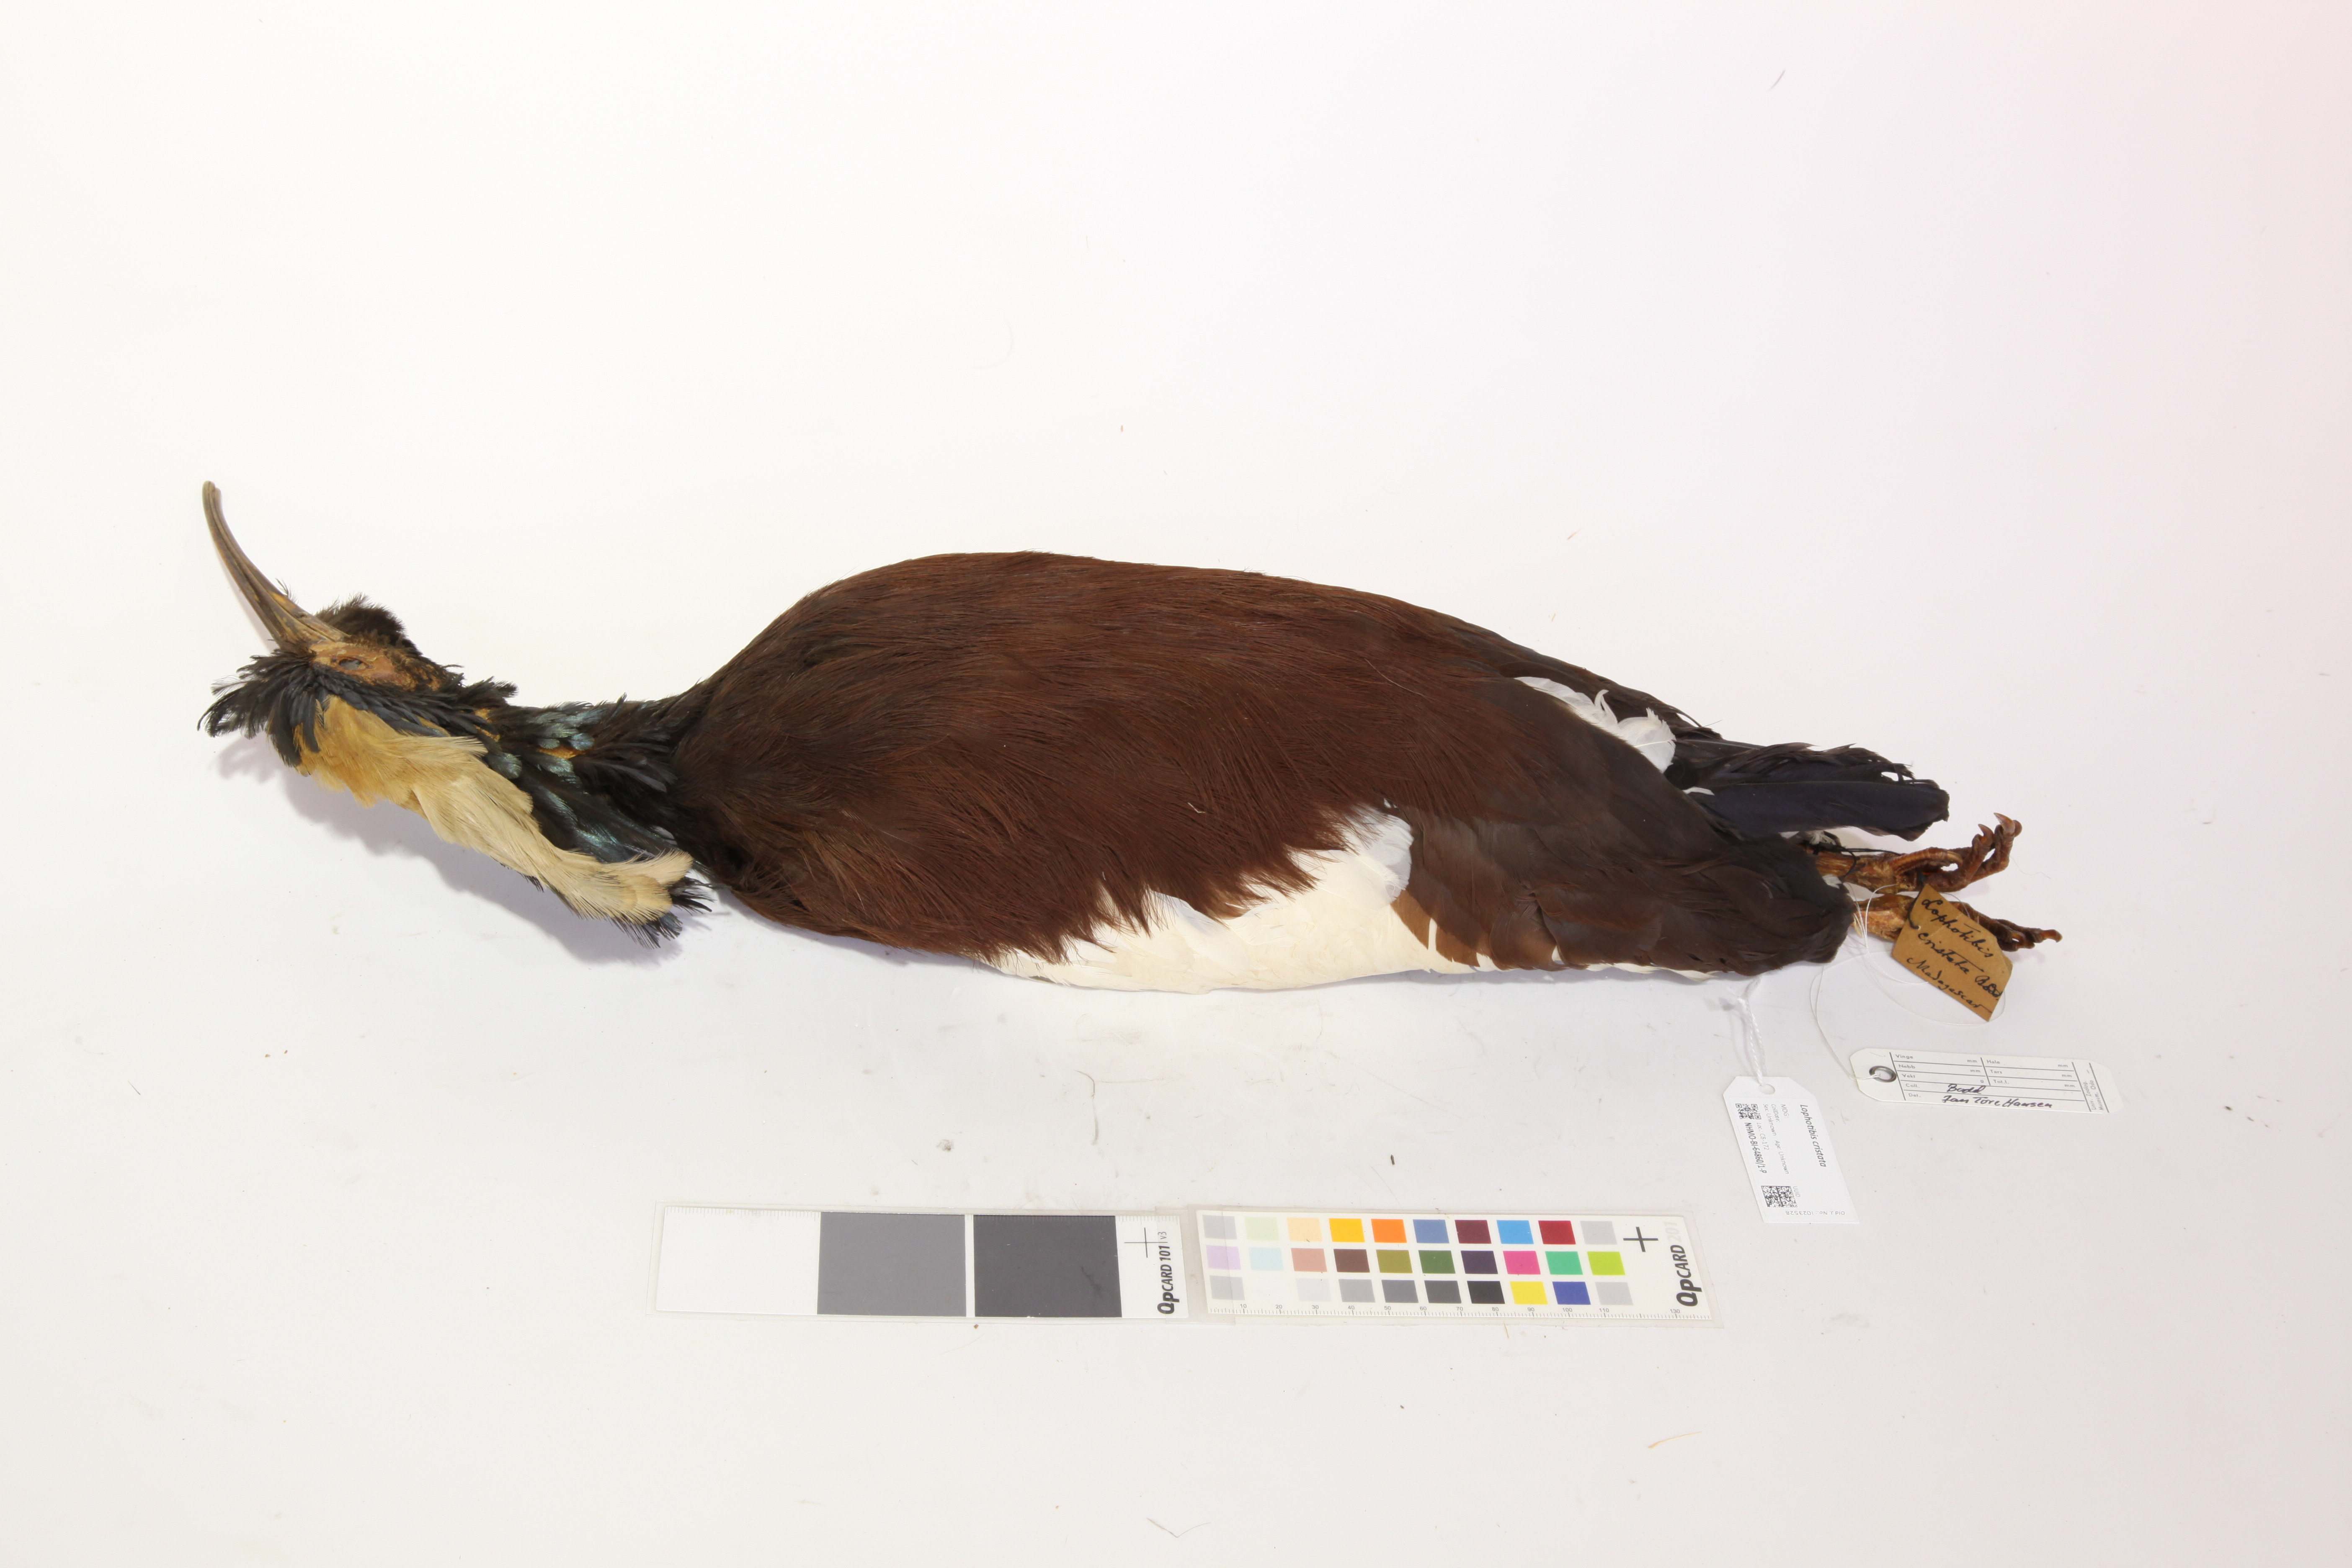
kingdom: Animalia
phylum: Chordata
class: Aves
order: Pelecaniformes
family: Threskiornithidae
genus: Lophotibis
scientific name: Lophotibis cristata
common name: Madagascar ibis
